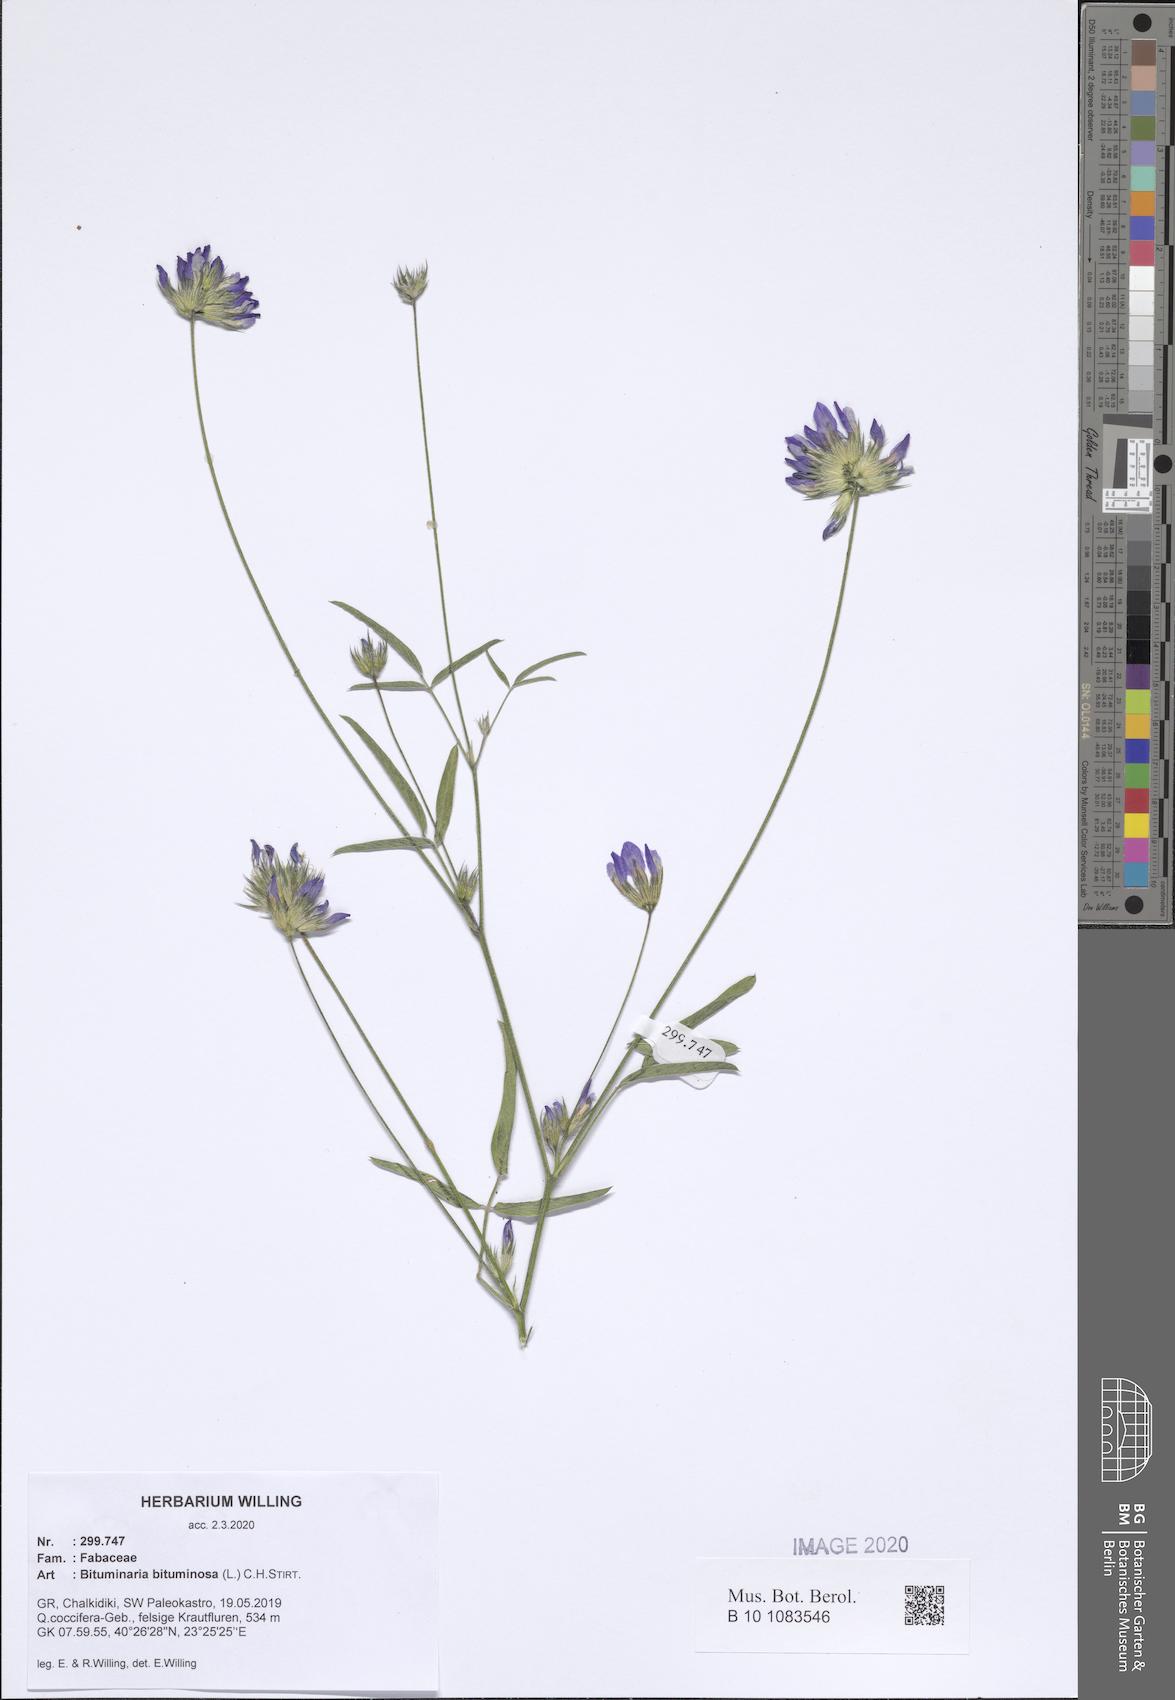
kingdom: Plantae
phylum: Tracheophyta
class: Magnoliopsida
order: Fabales
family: Fabaceae
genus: Bituminaria
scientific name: Bituminaria bituminosa
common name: Arabian pea
